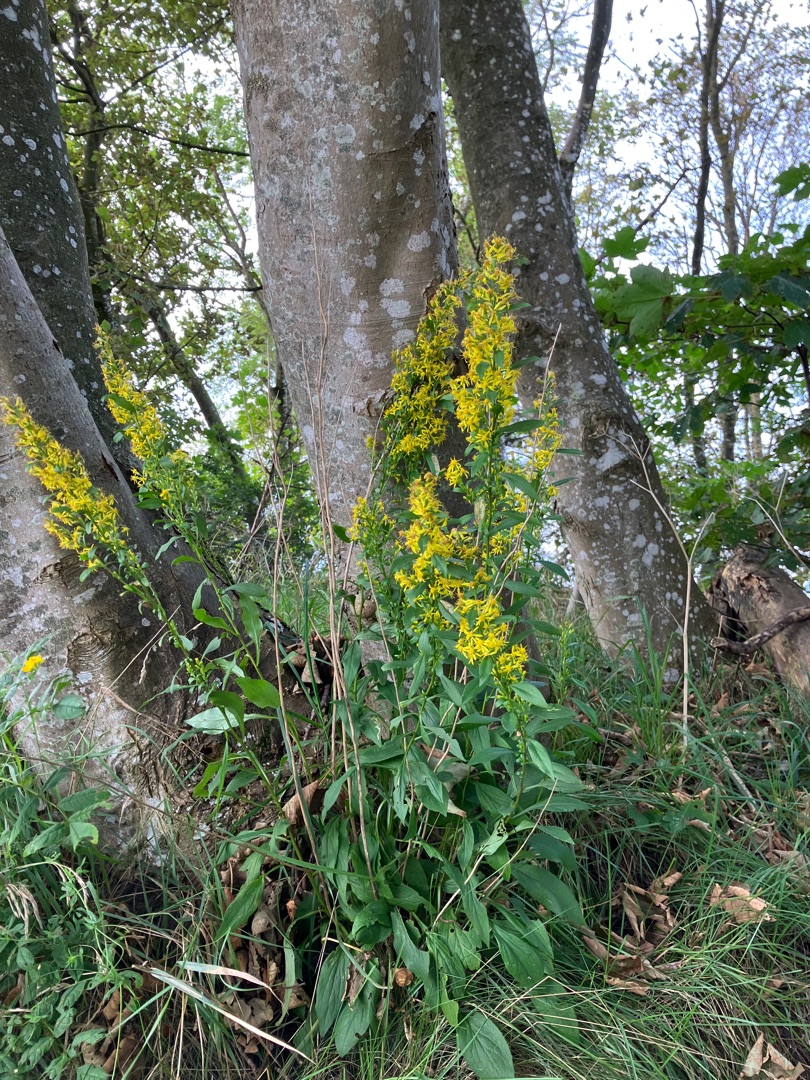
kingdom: Plantae
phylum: Tracheophyta
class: Magnoliopsida
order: Asterales
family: Asteraceae
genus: Solidago
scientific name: Solidago virgaurea
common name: Almindelig gyldenris
